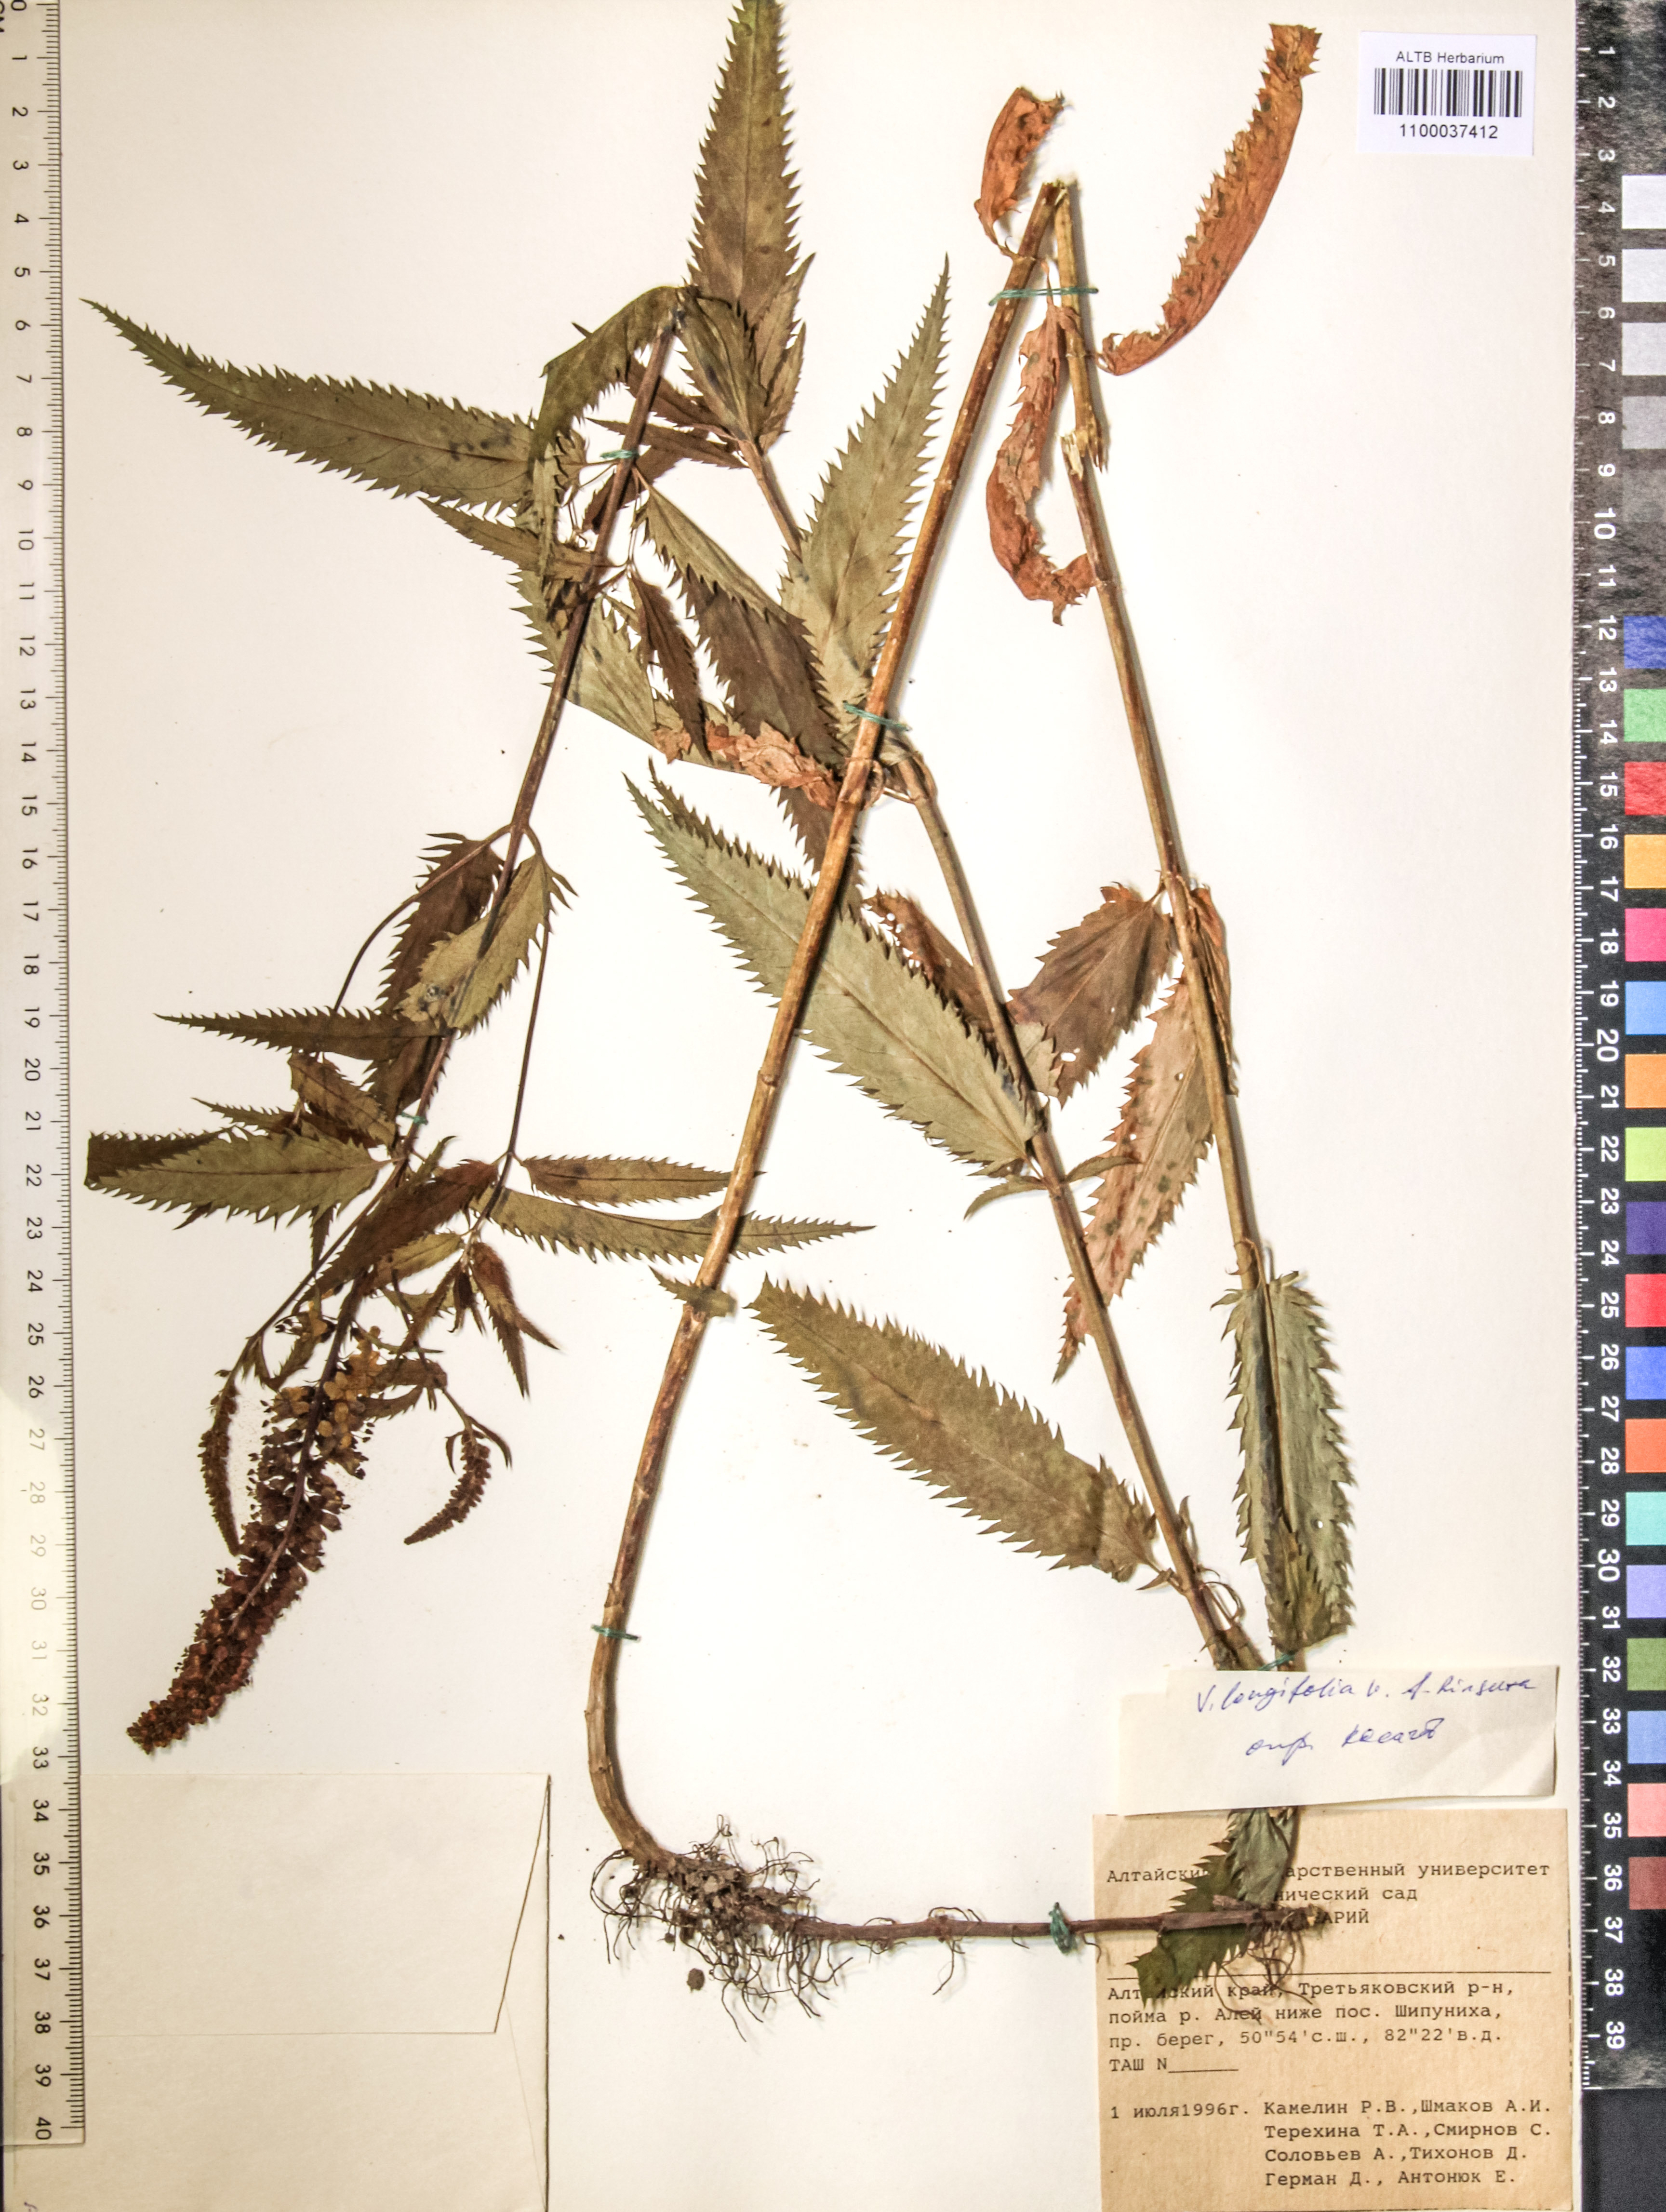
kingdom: Plantae
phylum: Tracheophyta
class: Magnoliopsida
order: Lamiales
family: Plantaginaceae
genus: Veronica
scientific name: Veronica longifolia
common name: Garden speedwell
